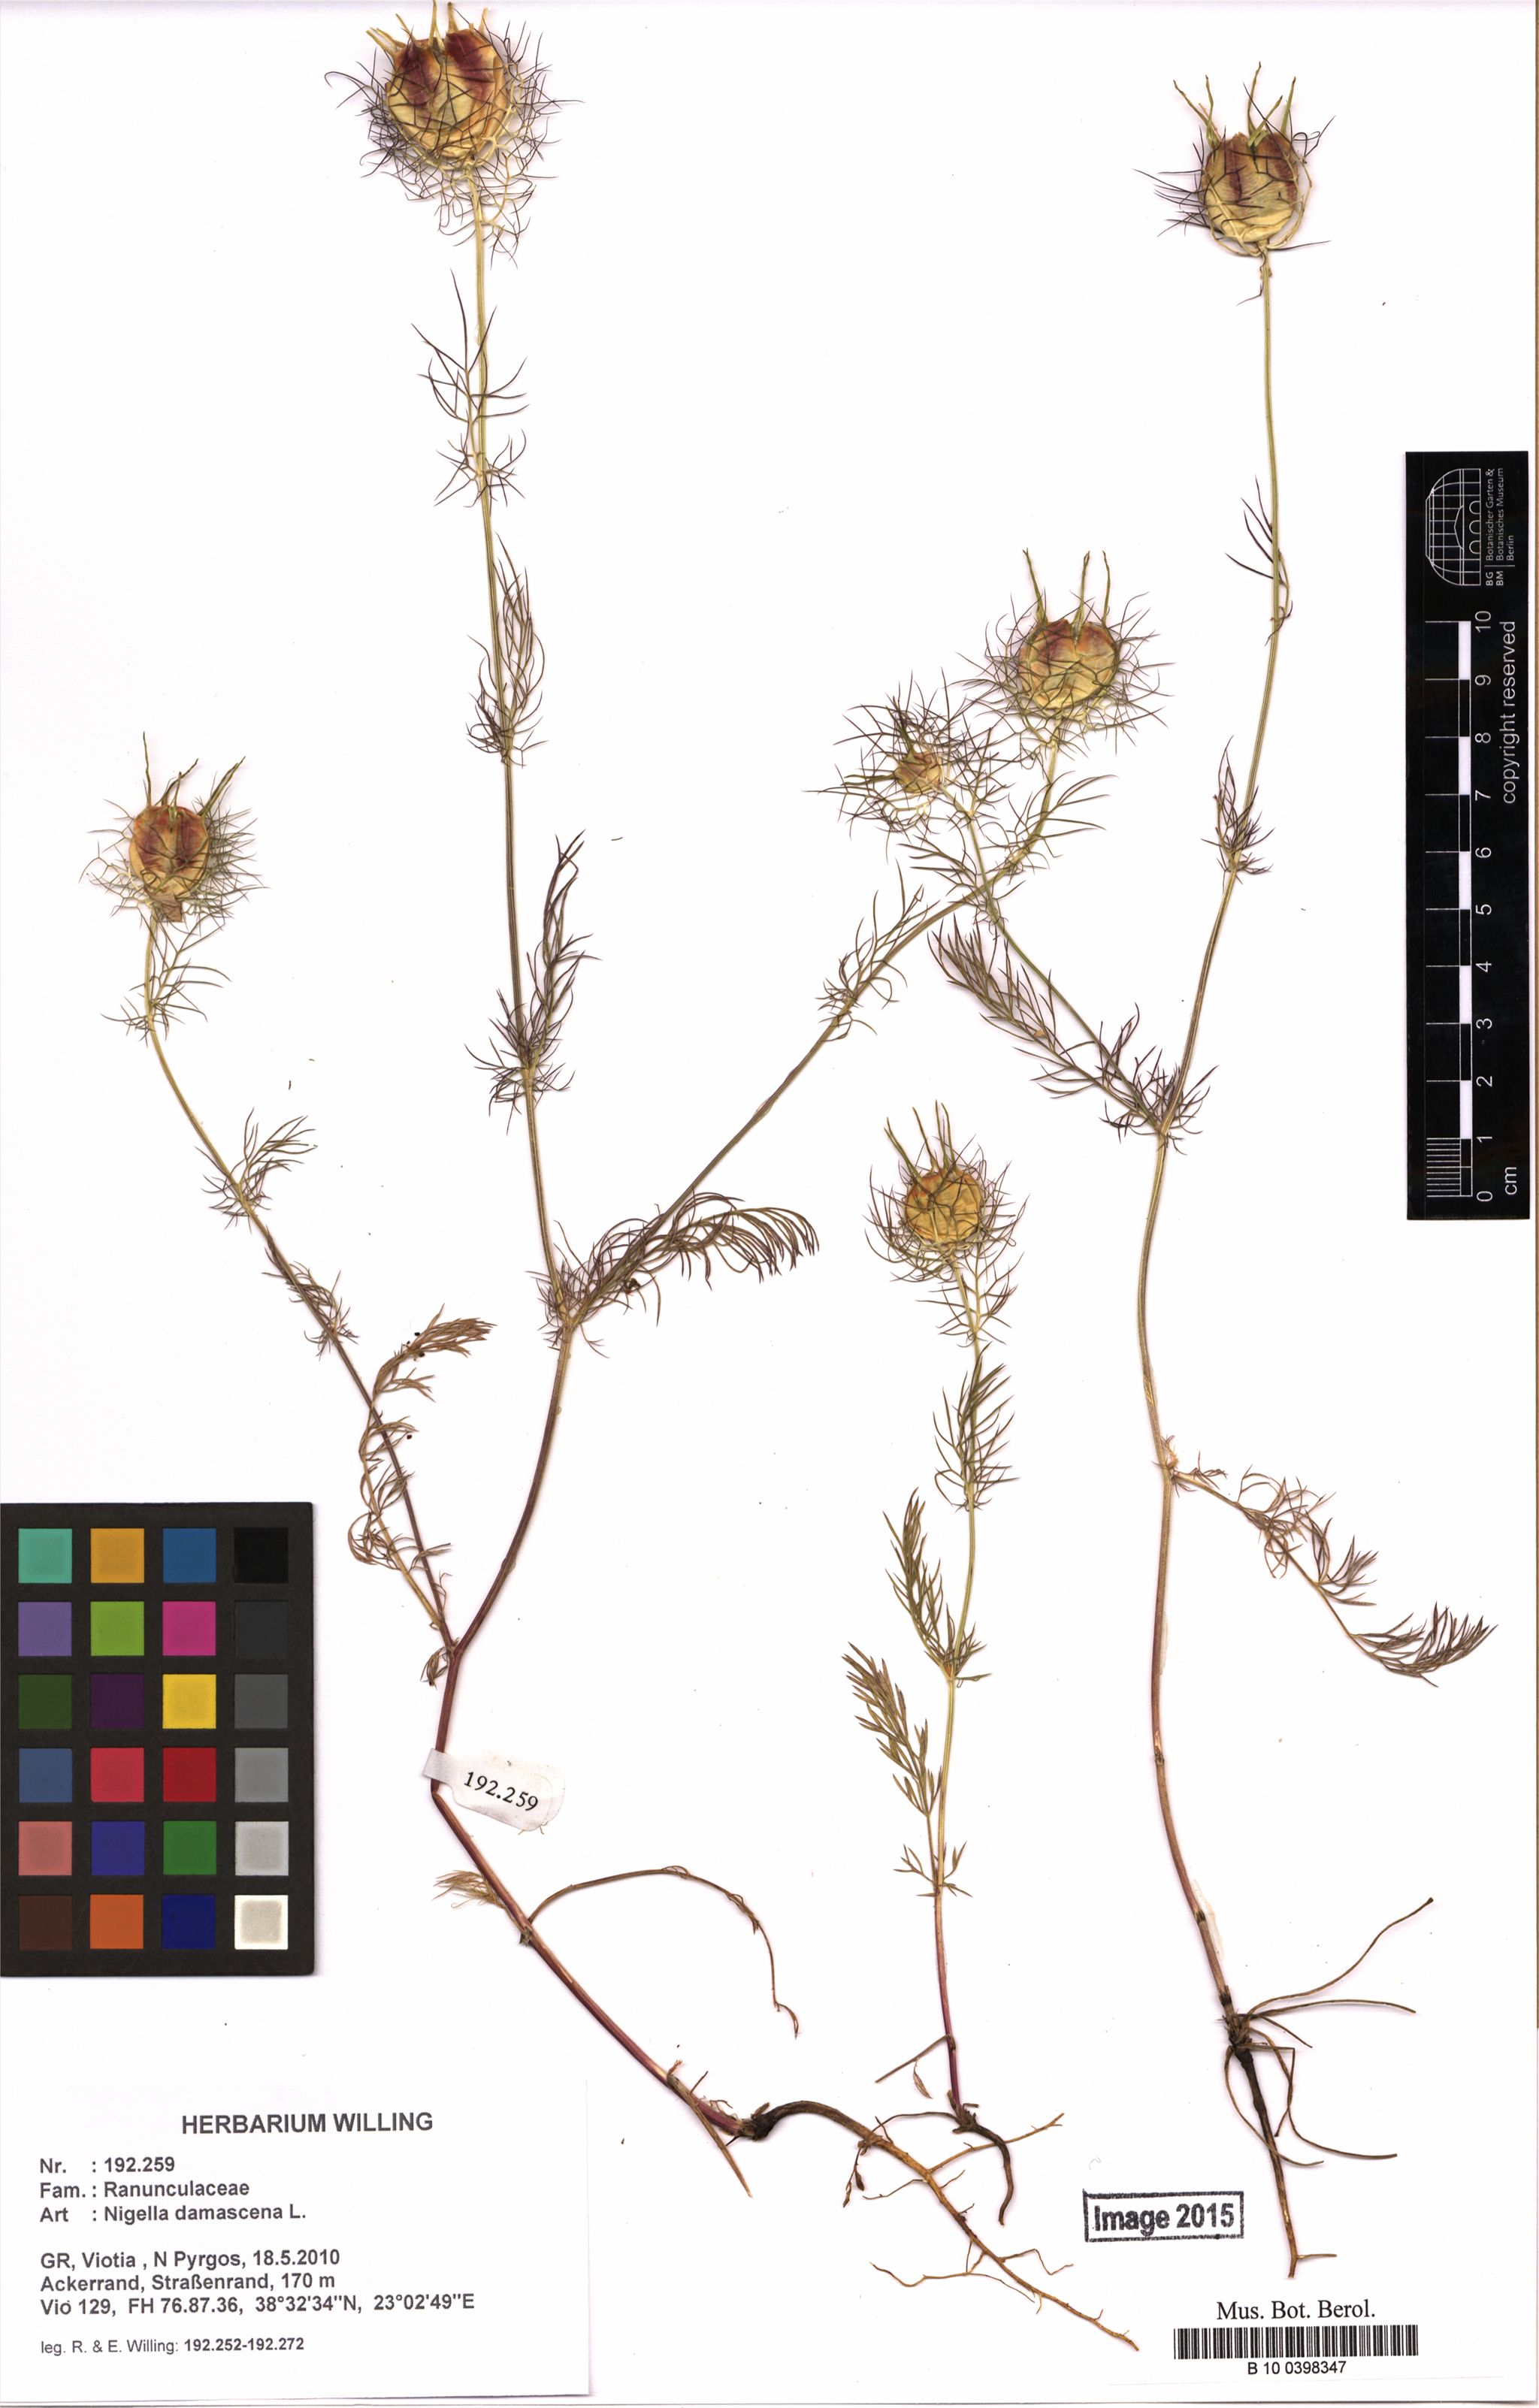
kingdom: Plantae
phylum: Tracheophyta
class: Magnoliopsida
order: Ranunculales
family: Ranunculaceae
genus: Nigella
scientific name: Nigella damascena
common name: Love-in-a-mist
